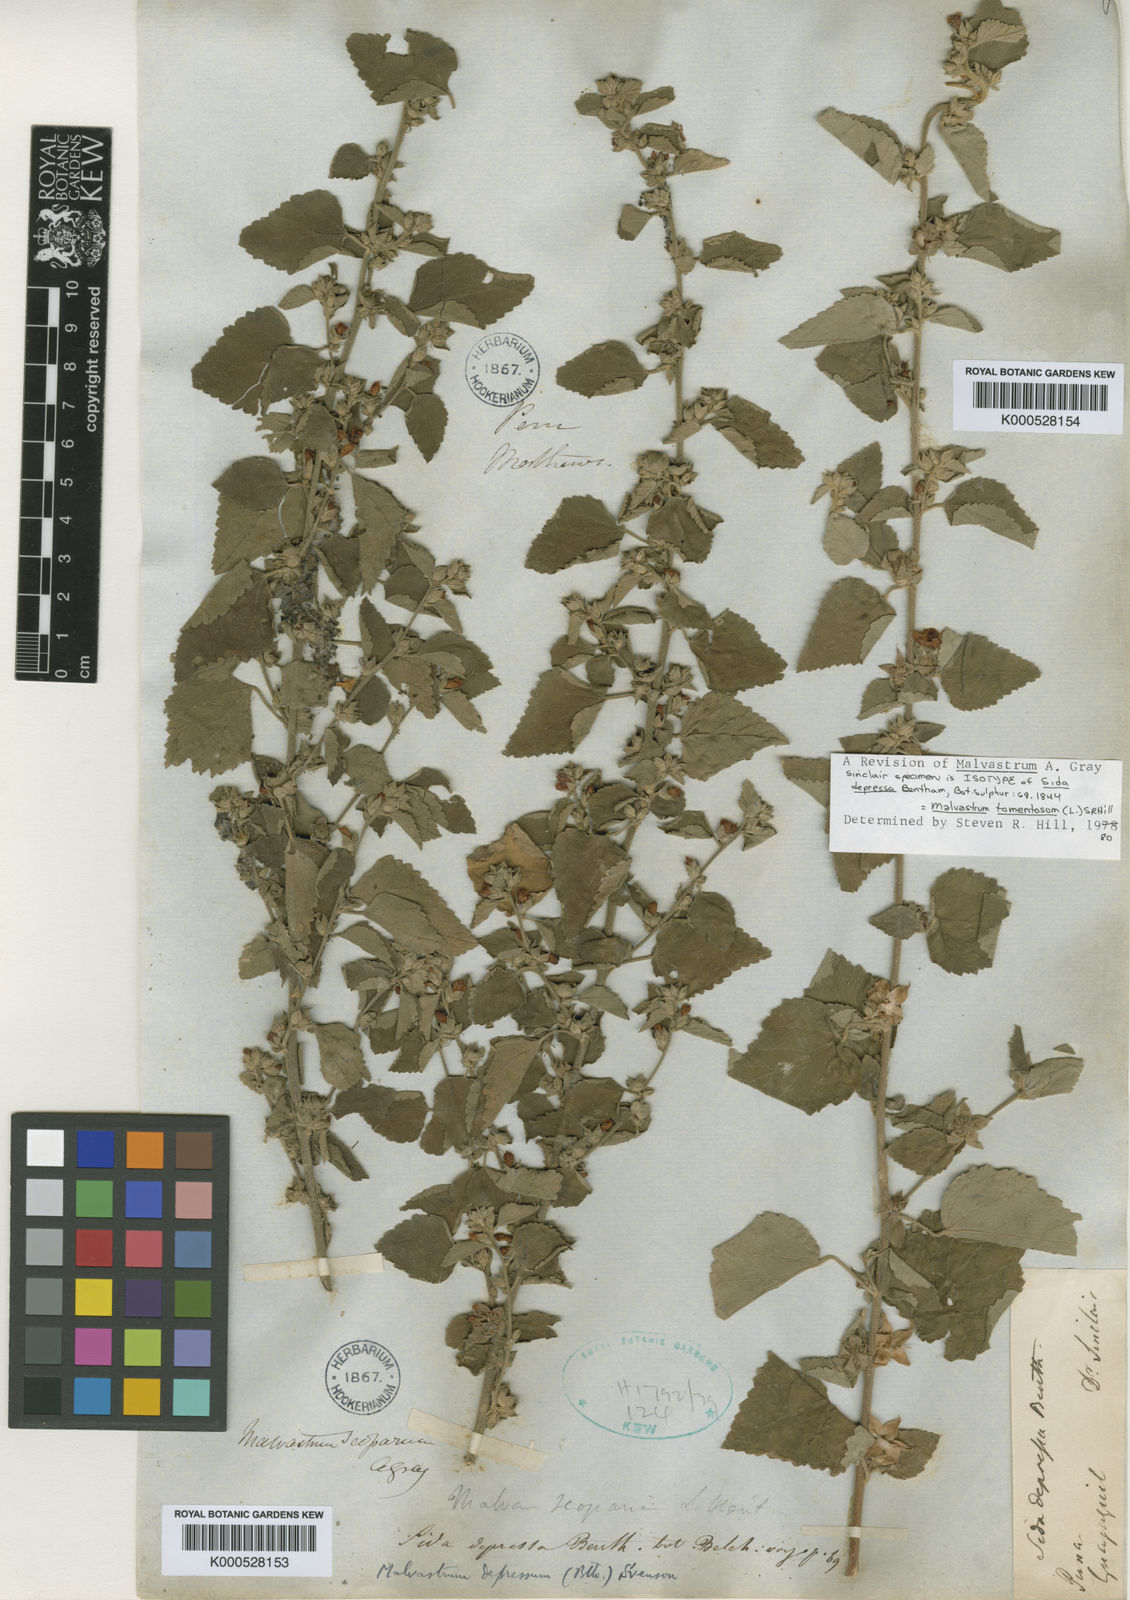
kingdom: Plantae
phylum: Tracheophyta
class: Magnoliopsida
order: Malvales
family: Malvaceae
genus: Malvastrum
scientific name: Malvastrum tomentosum
